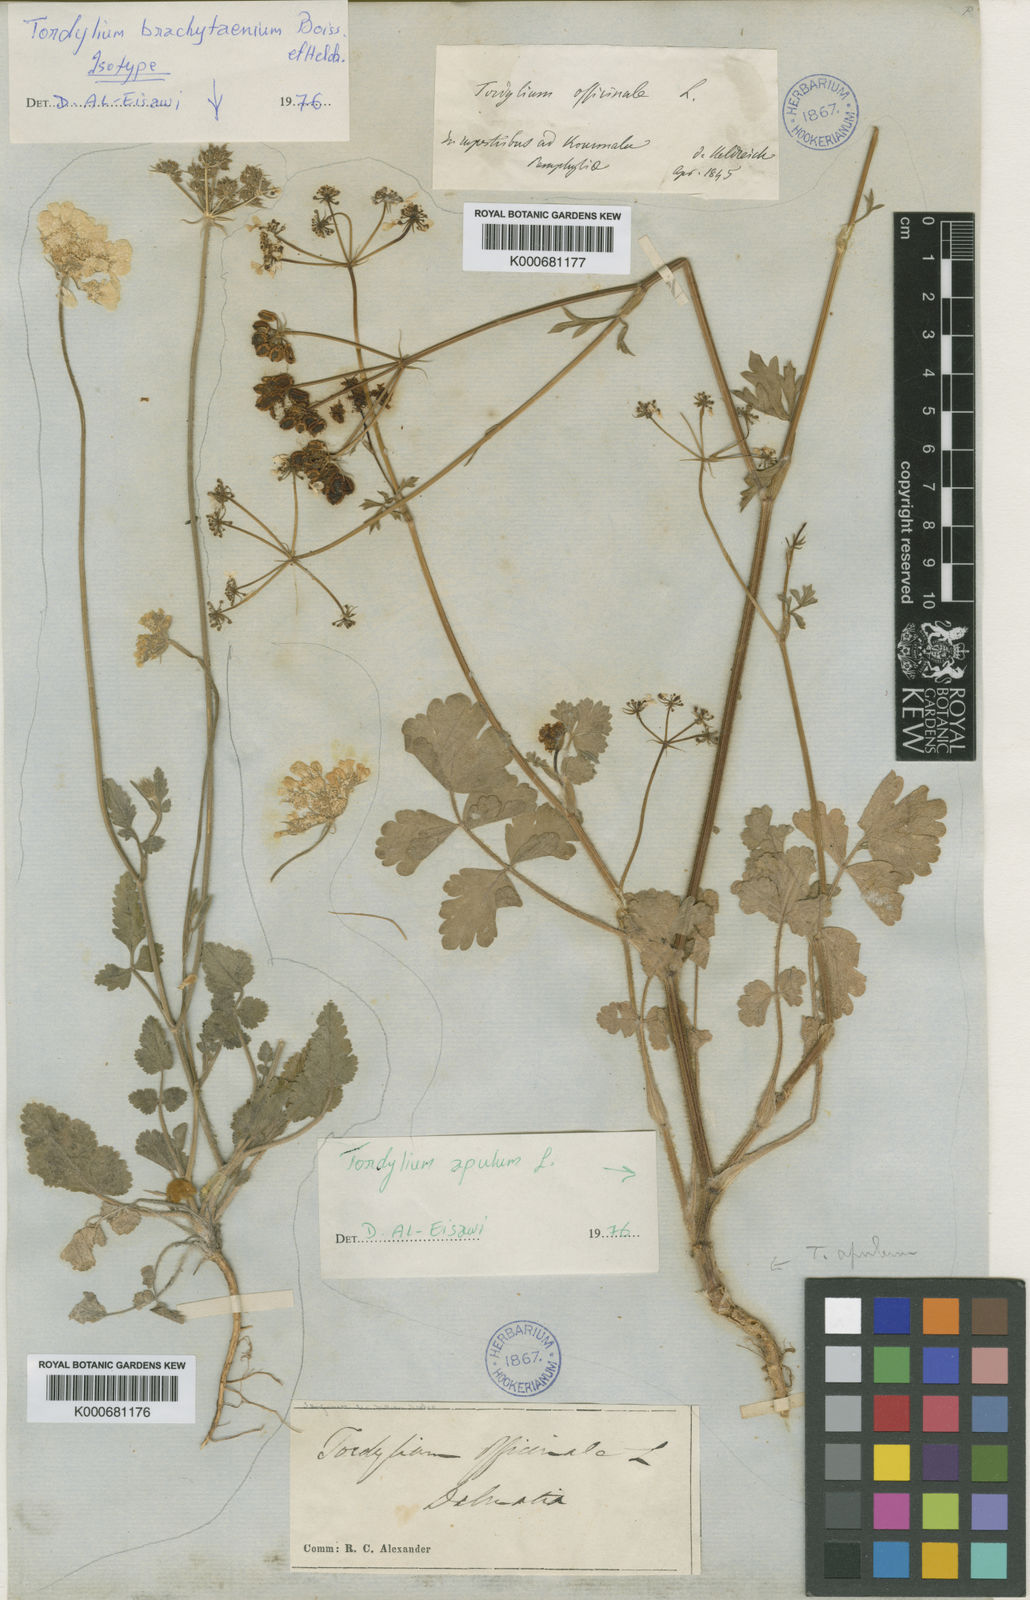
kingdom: Plantae
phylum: Tracheophyta
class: Magnoliopsida
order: Apiales
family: Apiaceae
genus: Tordylium
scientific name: Tordylium brachytaenium
